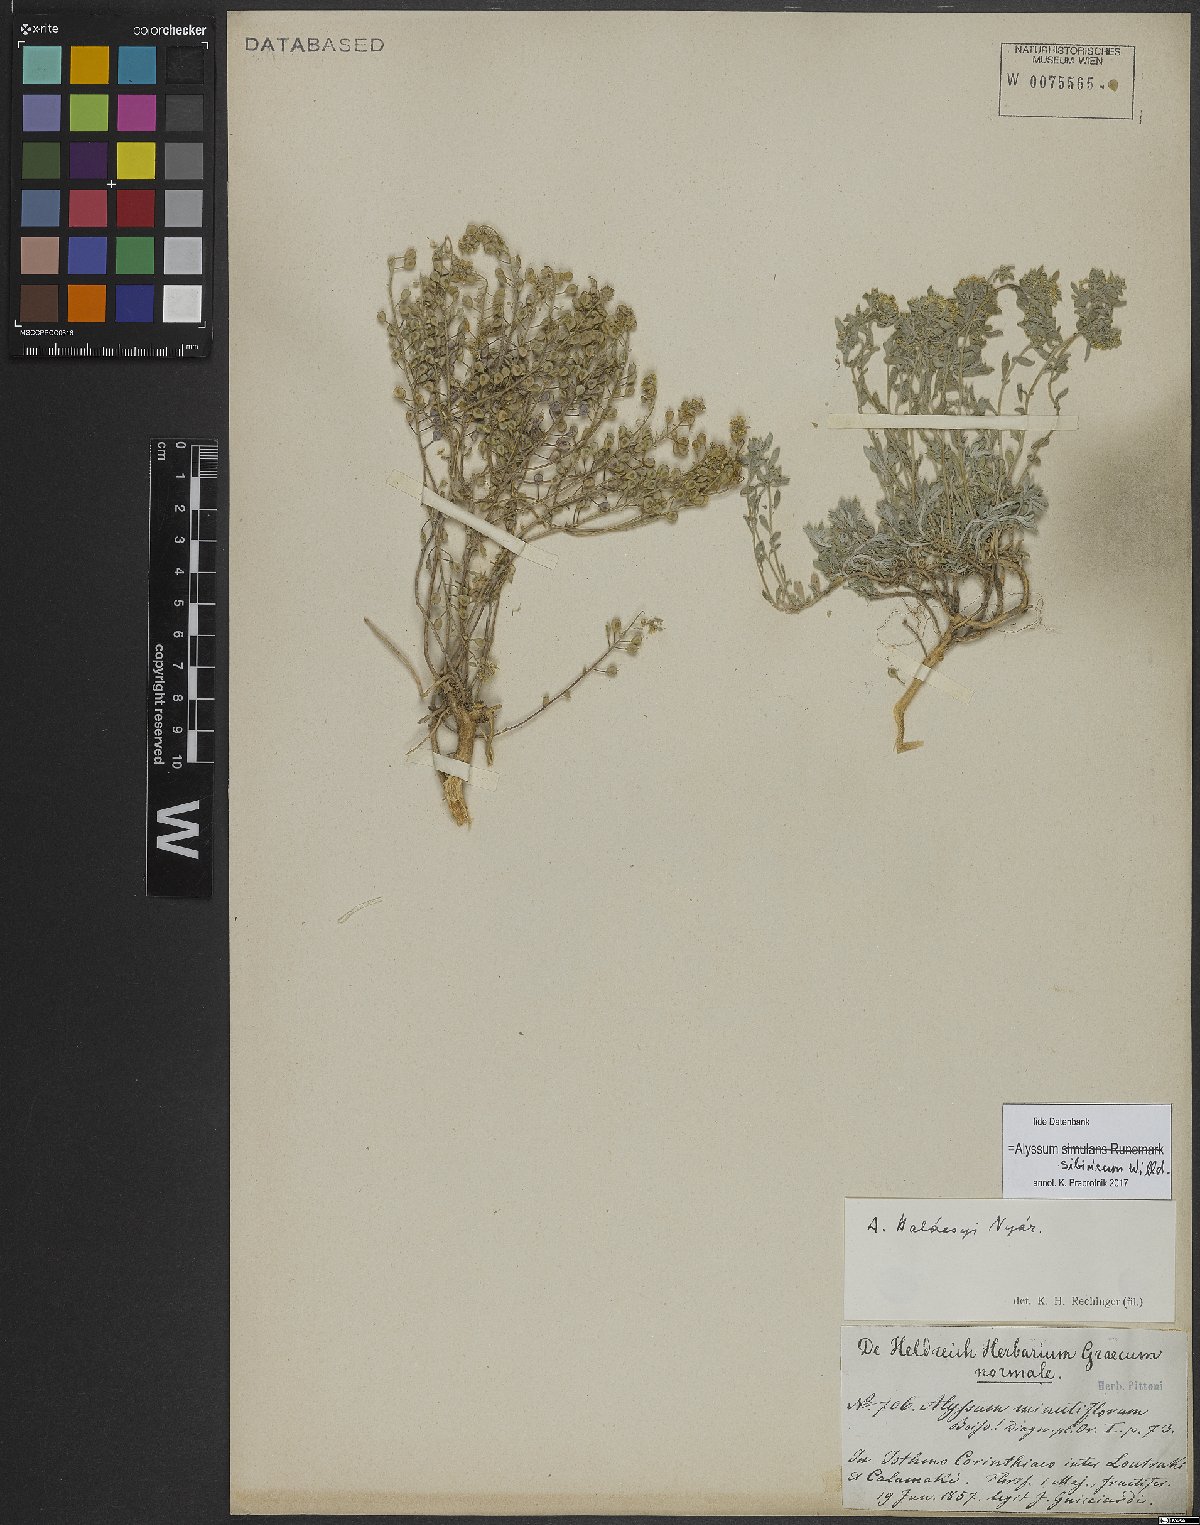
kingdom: Plantae
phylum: Tracheophyta
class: Magnoliopsida
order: Brassicales
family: Brassicaceae
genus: Odontarrhena
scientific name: Odontarrhena sibirica
